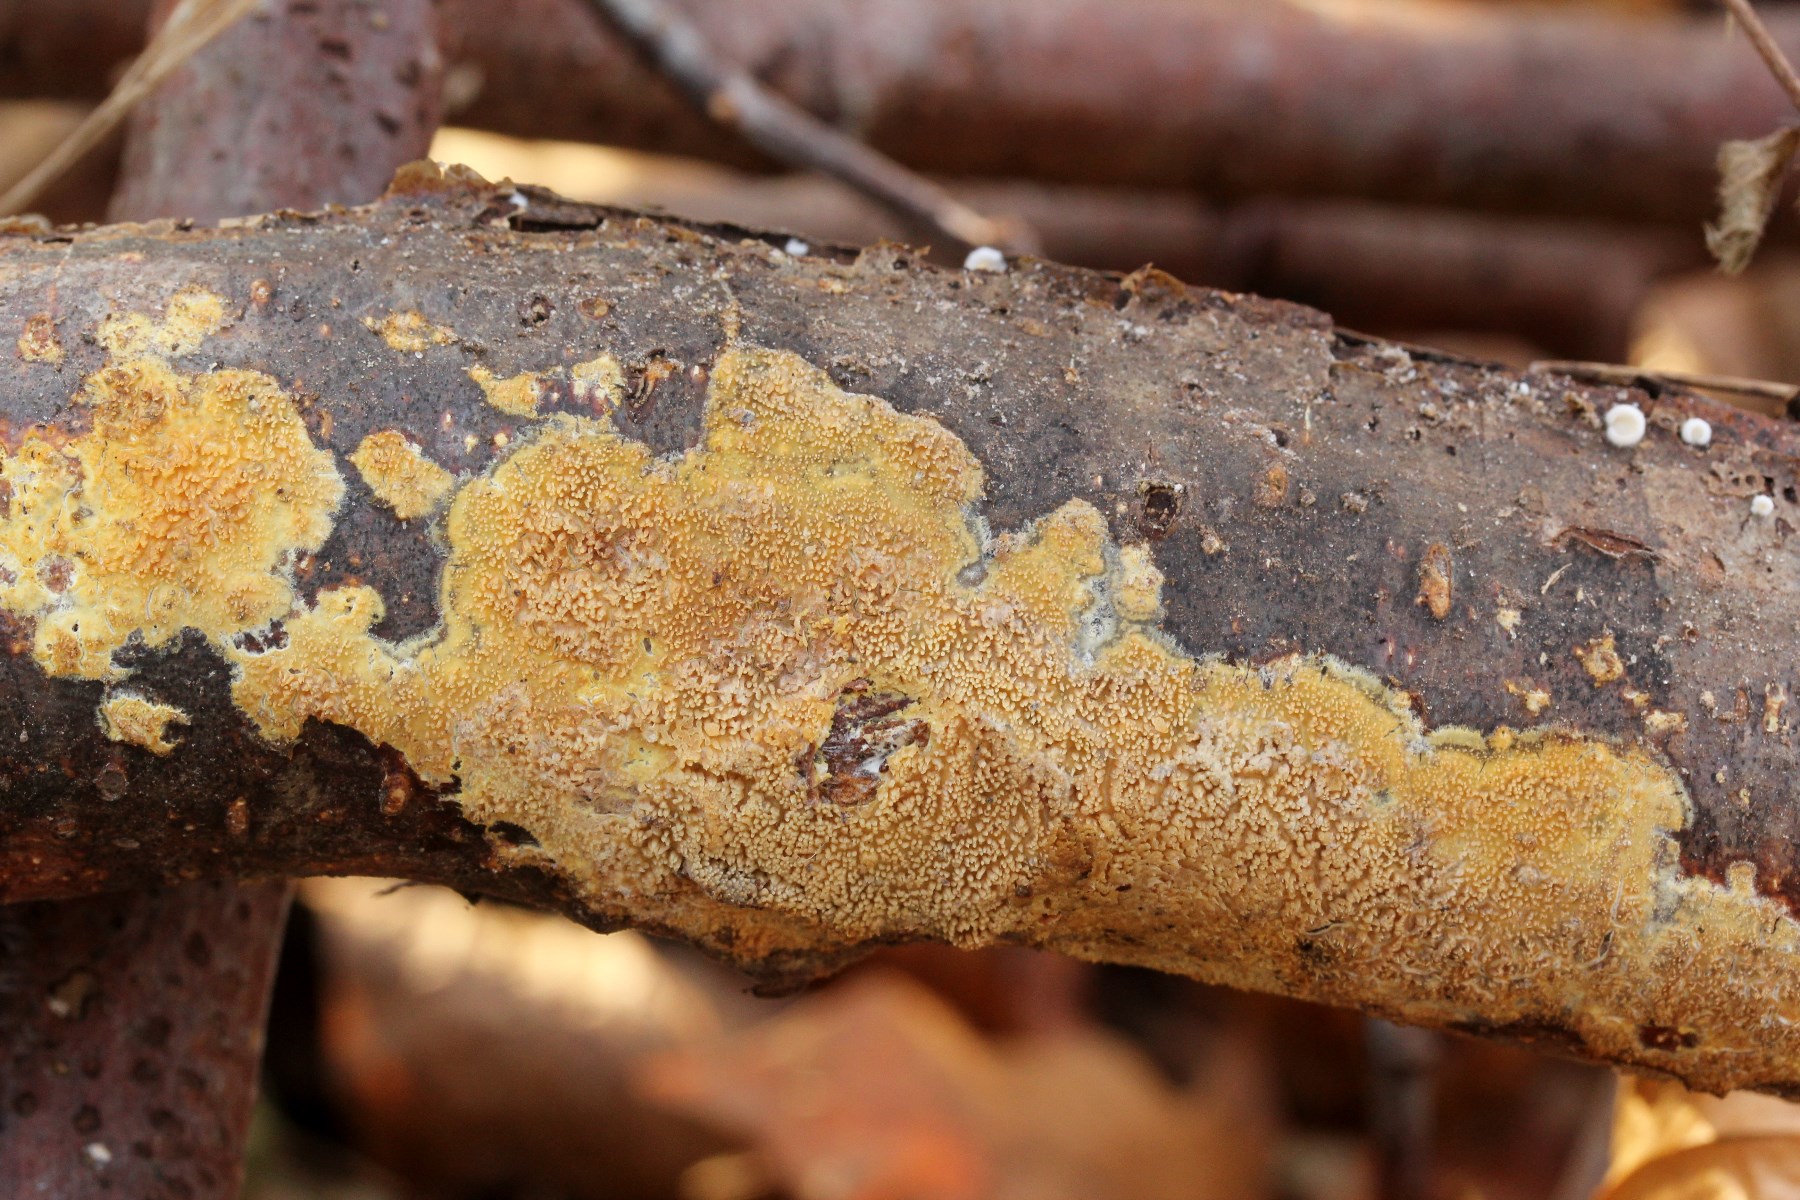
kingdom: Fungi
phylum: Basidiomycota
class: Agaricomycetes
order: Polyporales
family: Meruliaceae
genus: Mycoacia
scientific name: Mycoacia uda
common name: citrongul vokspig
